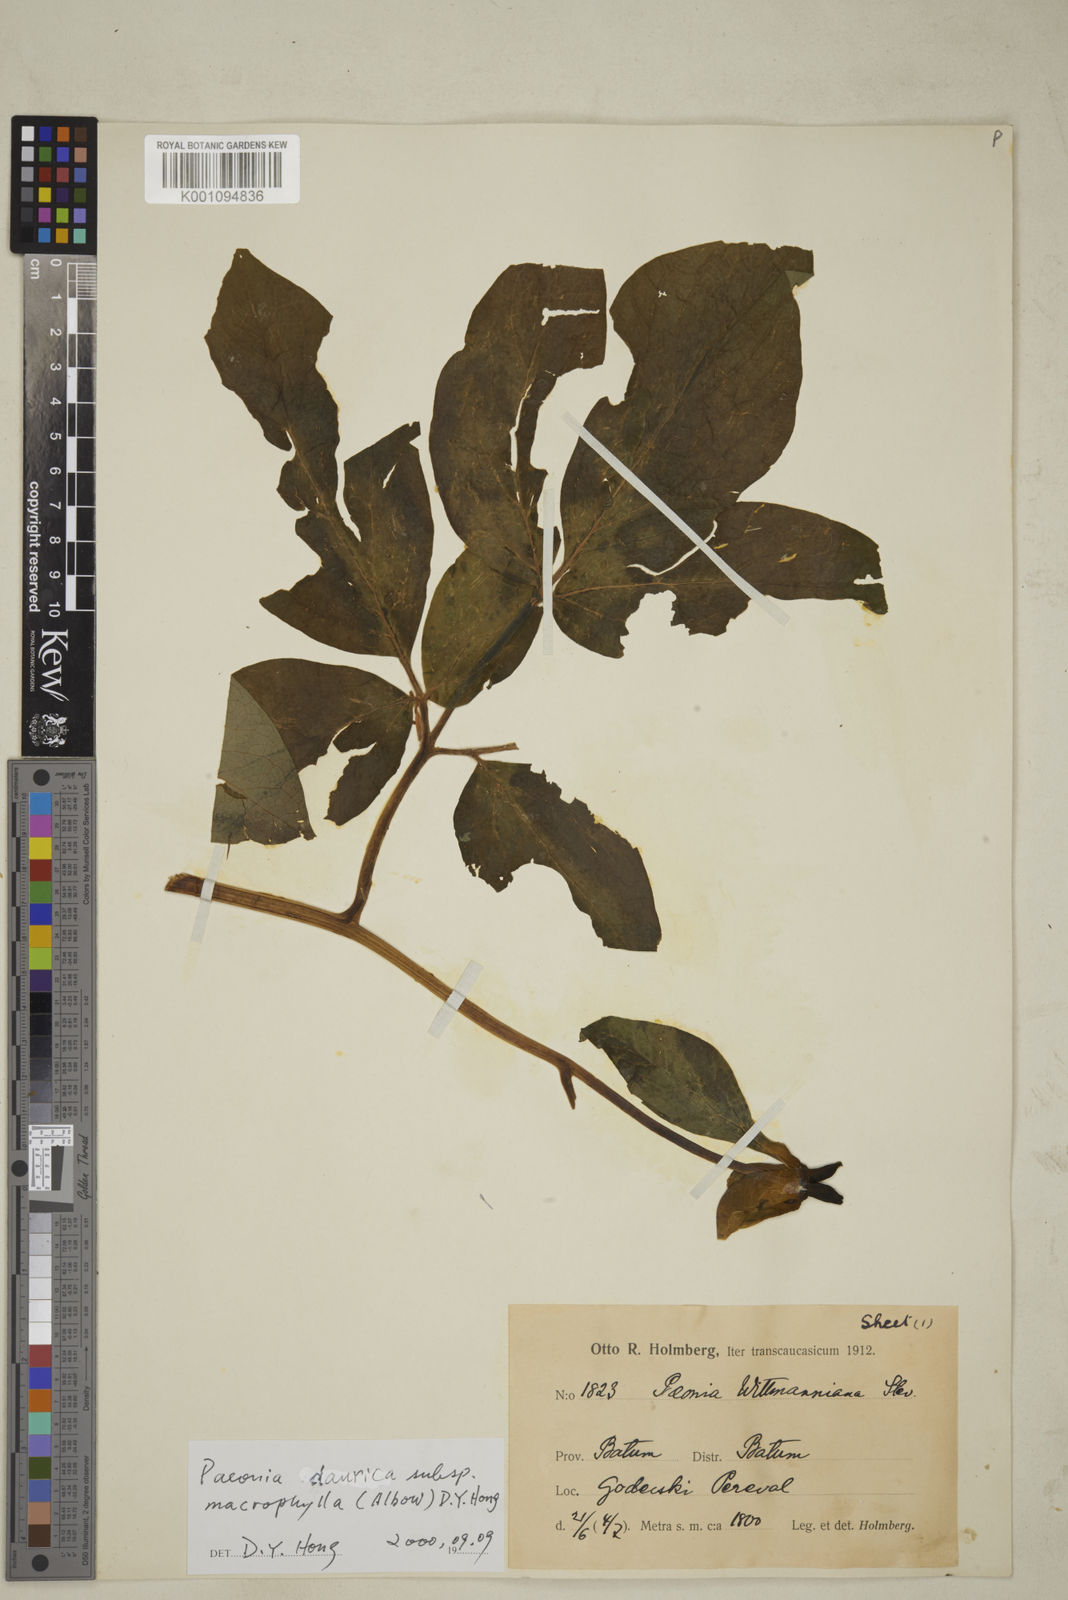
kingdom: Plantae
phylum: Tracheophyta
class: Magnoliopsida
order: Saxifragales
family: Paeoniaceae
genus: Paeonia
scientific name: Paeonia wittmanniana
